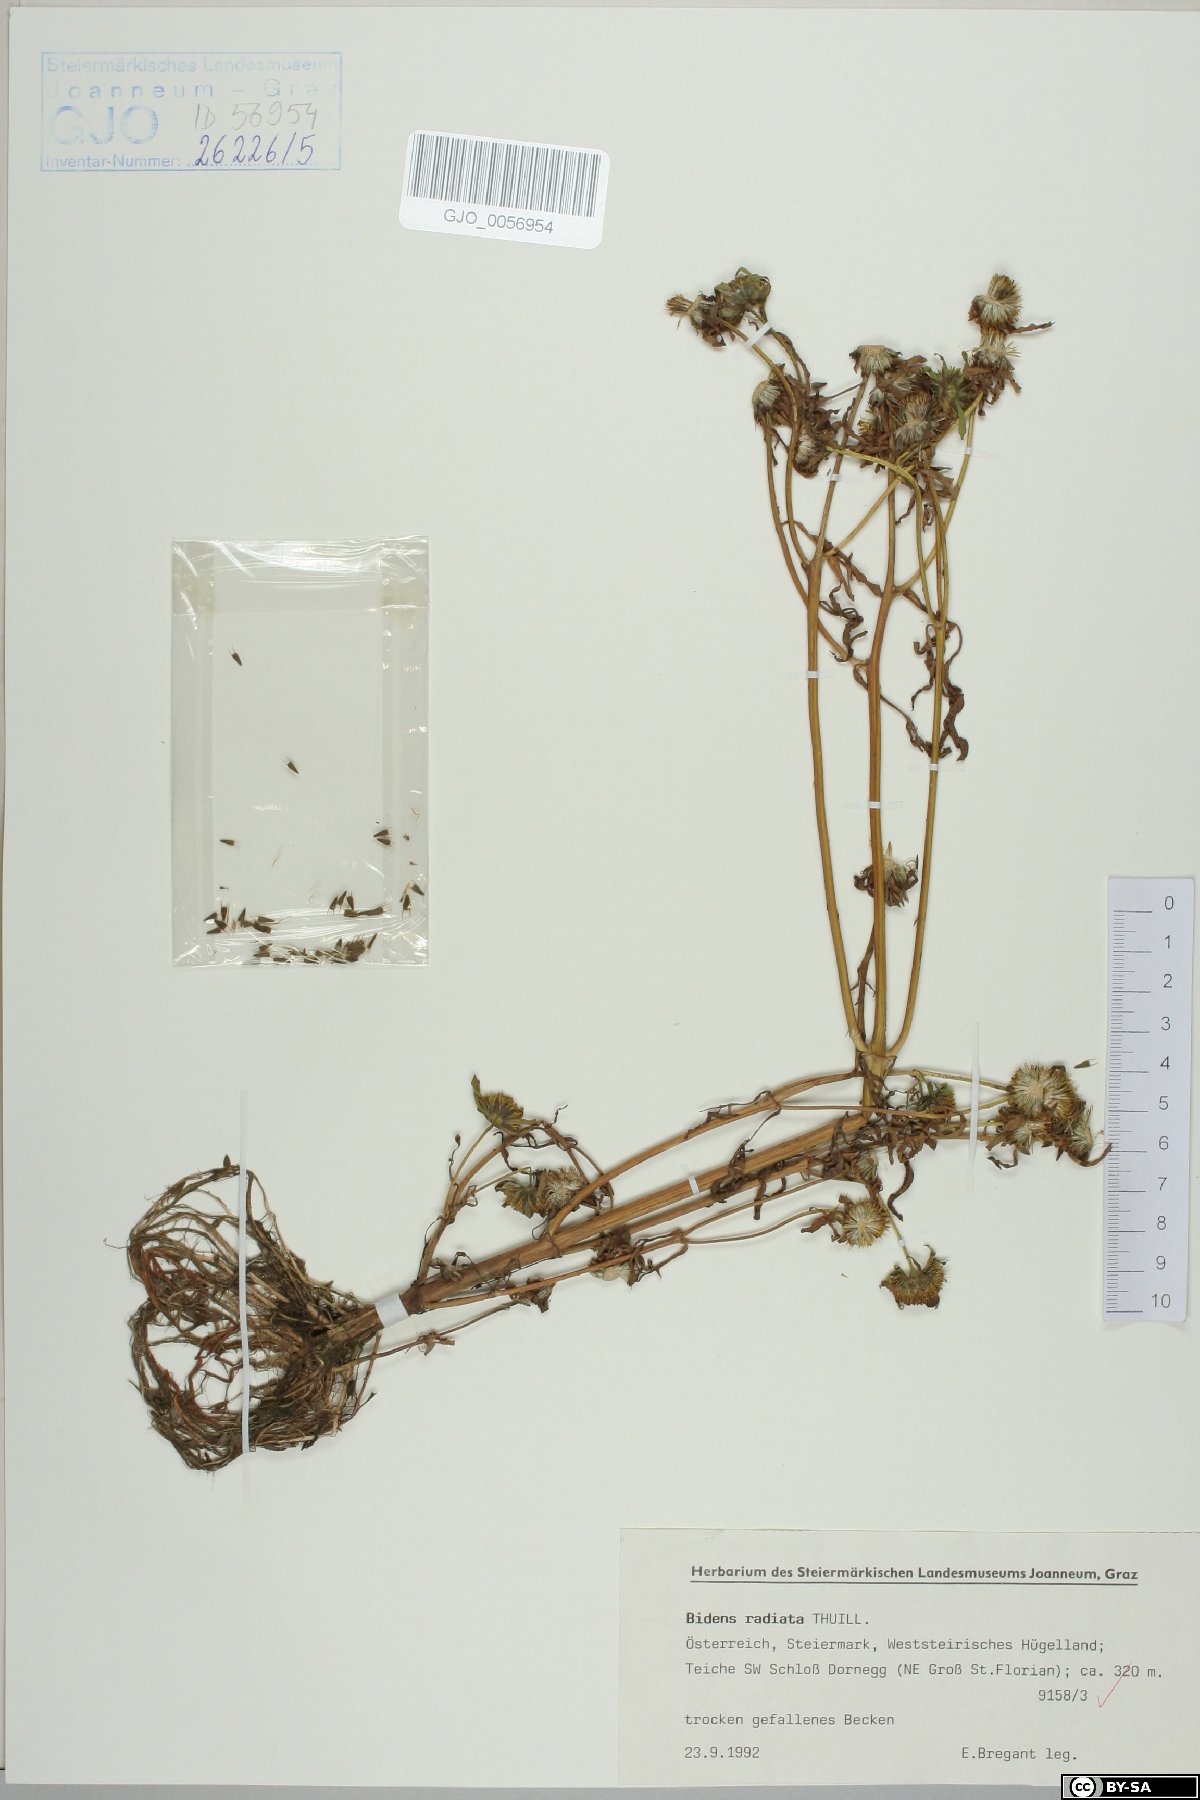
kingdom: Plantae
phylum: Tracheophyta
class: Magnoliopsida
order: Asterales
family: Asteraceae
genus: Bidens
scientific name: Bidens radiata
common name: Radiating bur-marigold
